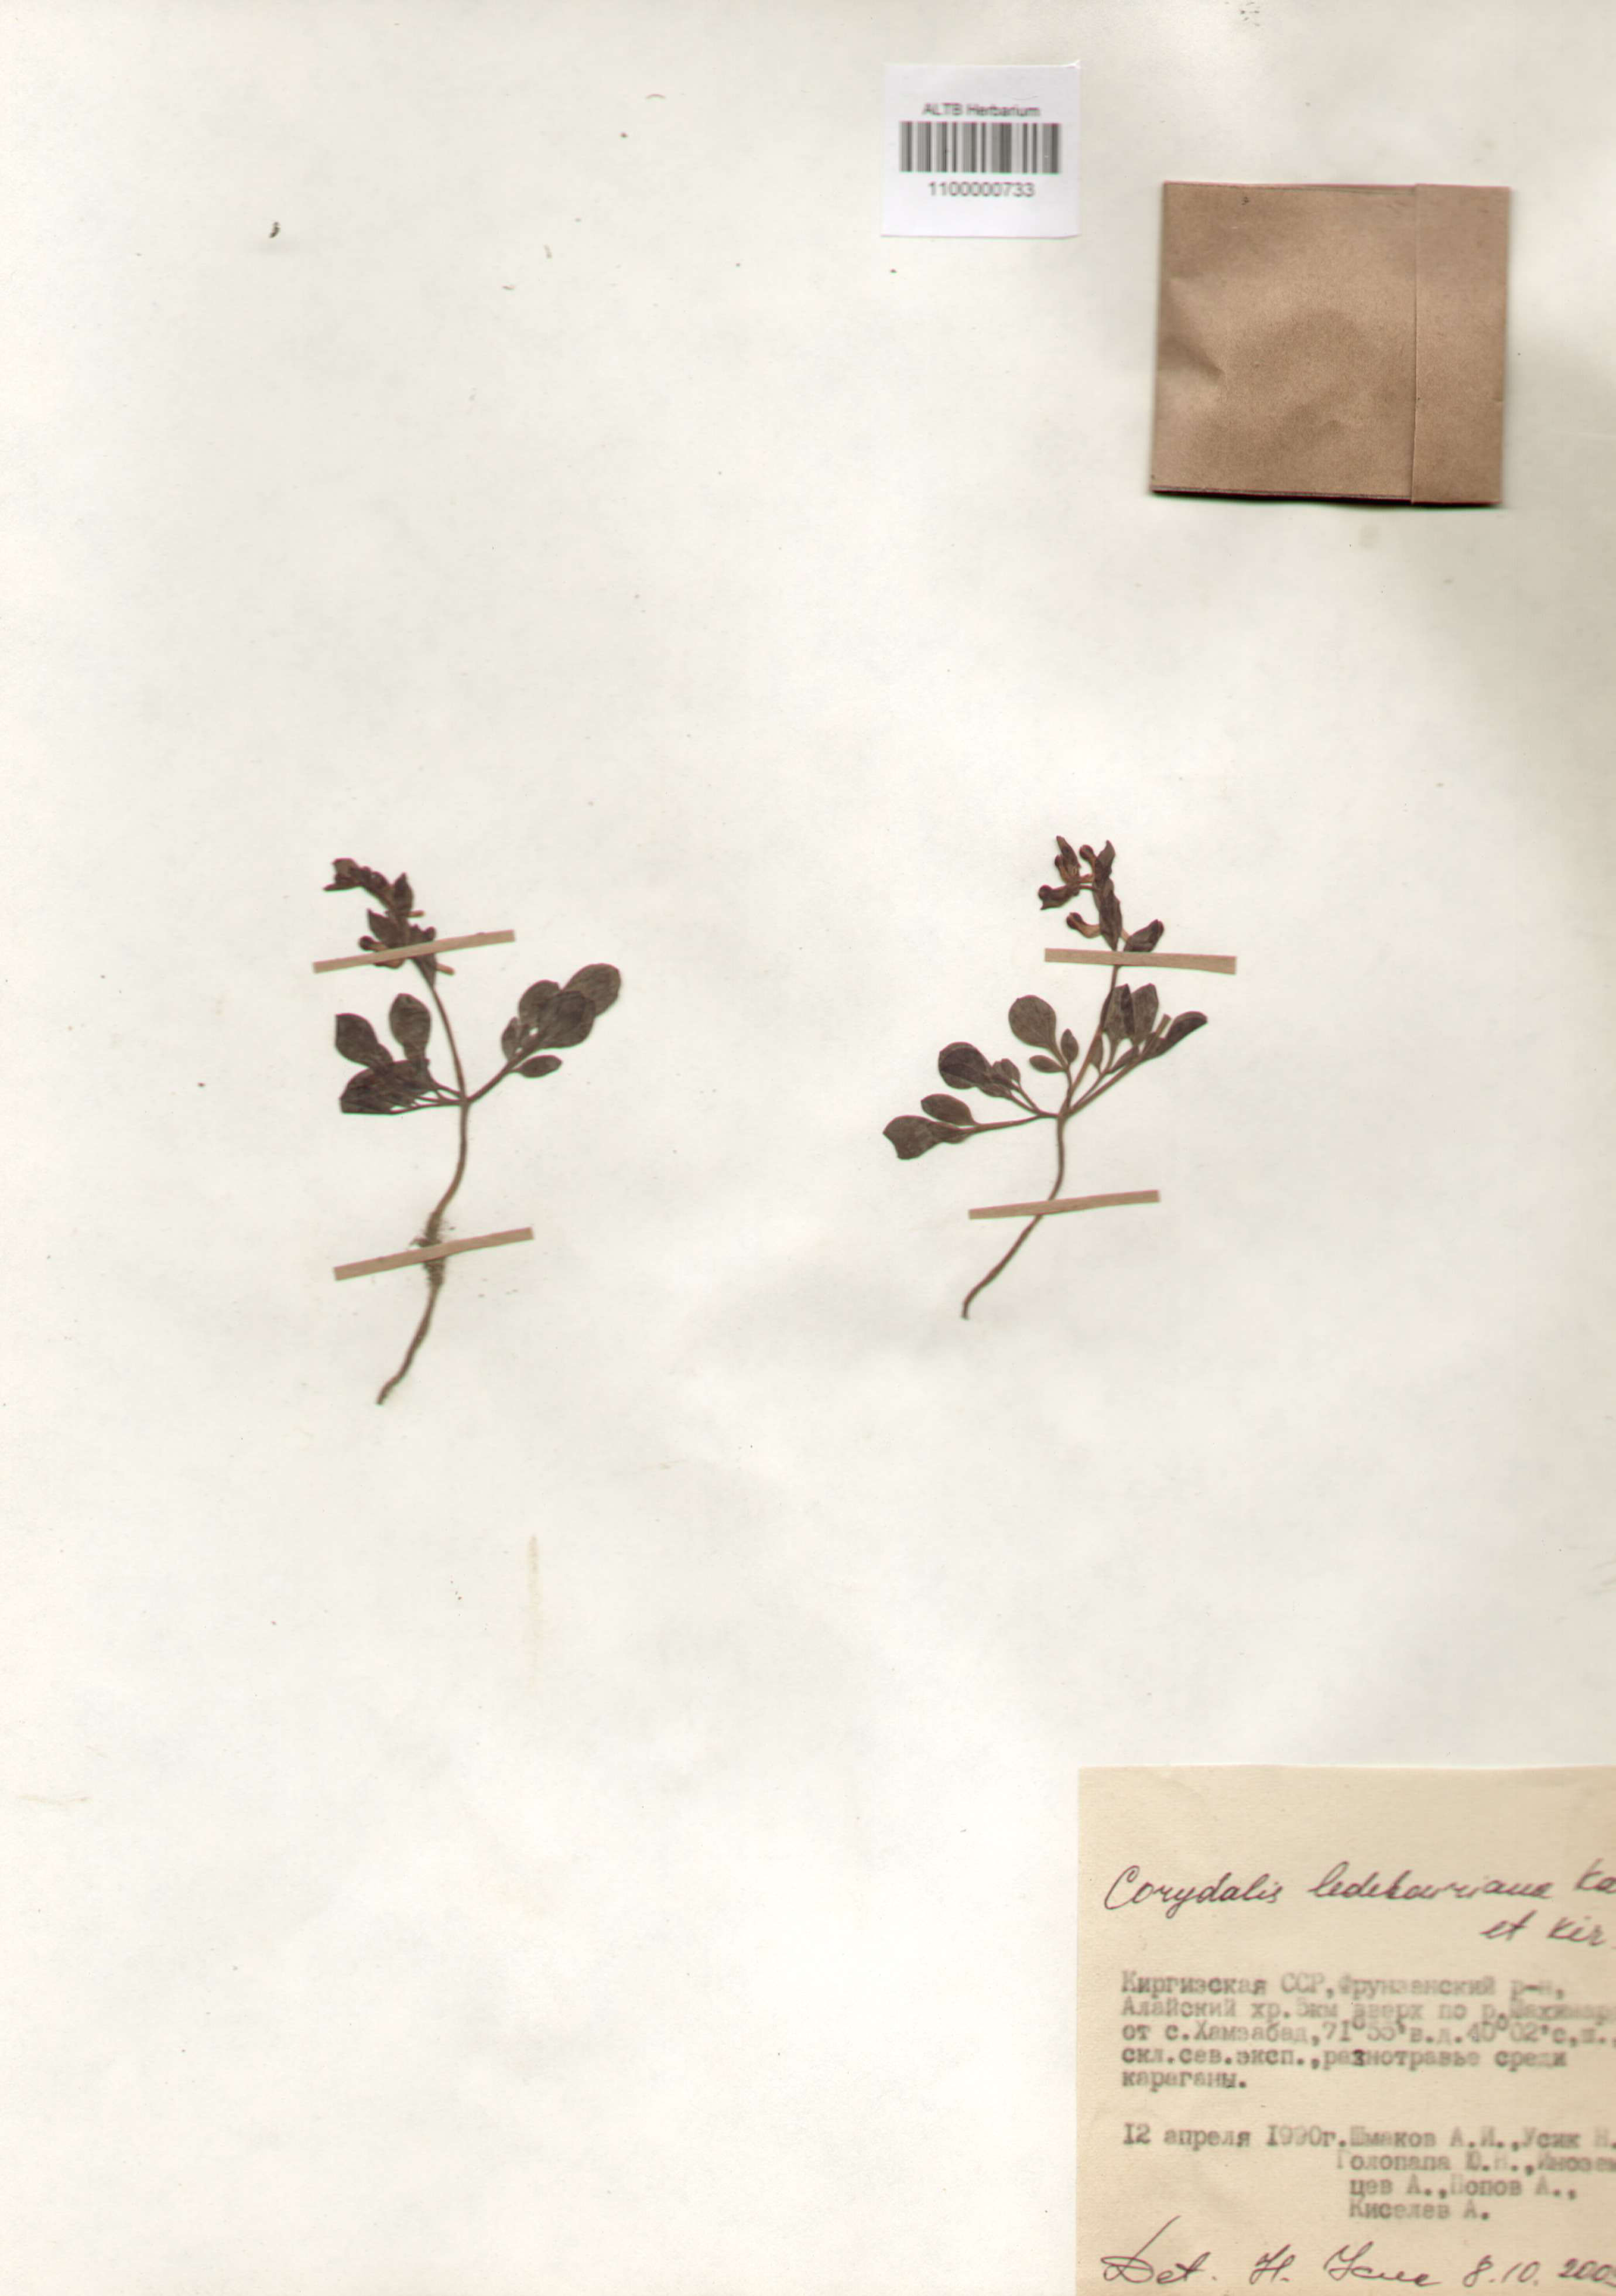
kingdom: Plantae
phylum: Tracheophyta
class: Magnoliopsida
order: Ranunculales
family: Papaveraceae
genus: Corydalis
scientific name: Corydalis ledebouriana
